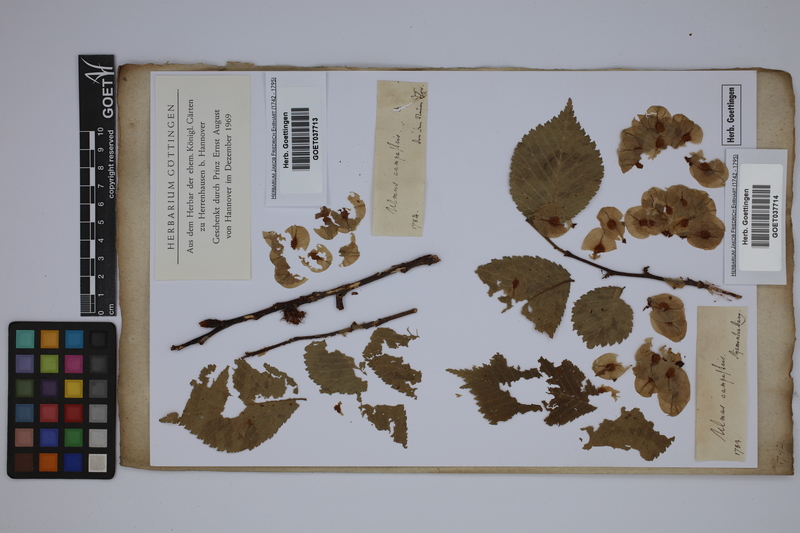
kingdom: Plantae
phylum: Tracheophyta
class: Magnoliopsida
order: Rosales
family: Ulmaceae
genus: Ulmus
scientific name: Ulmus laevis
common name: European white-elm
